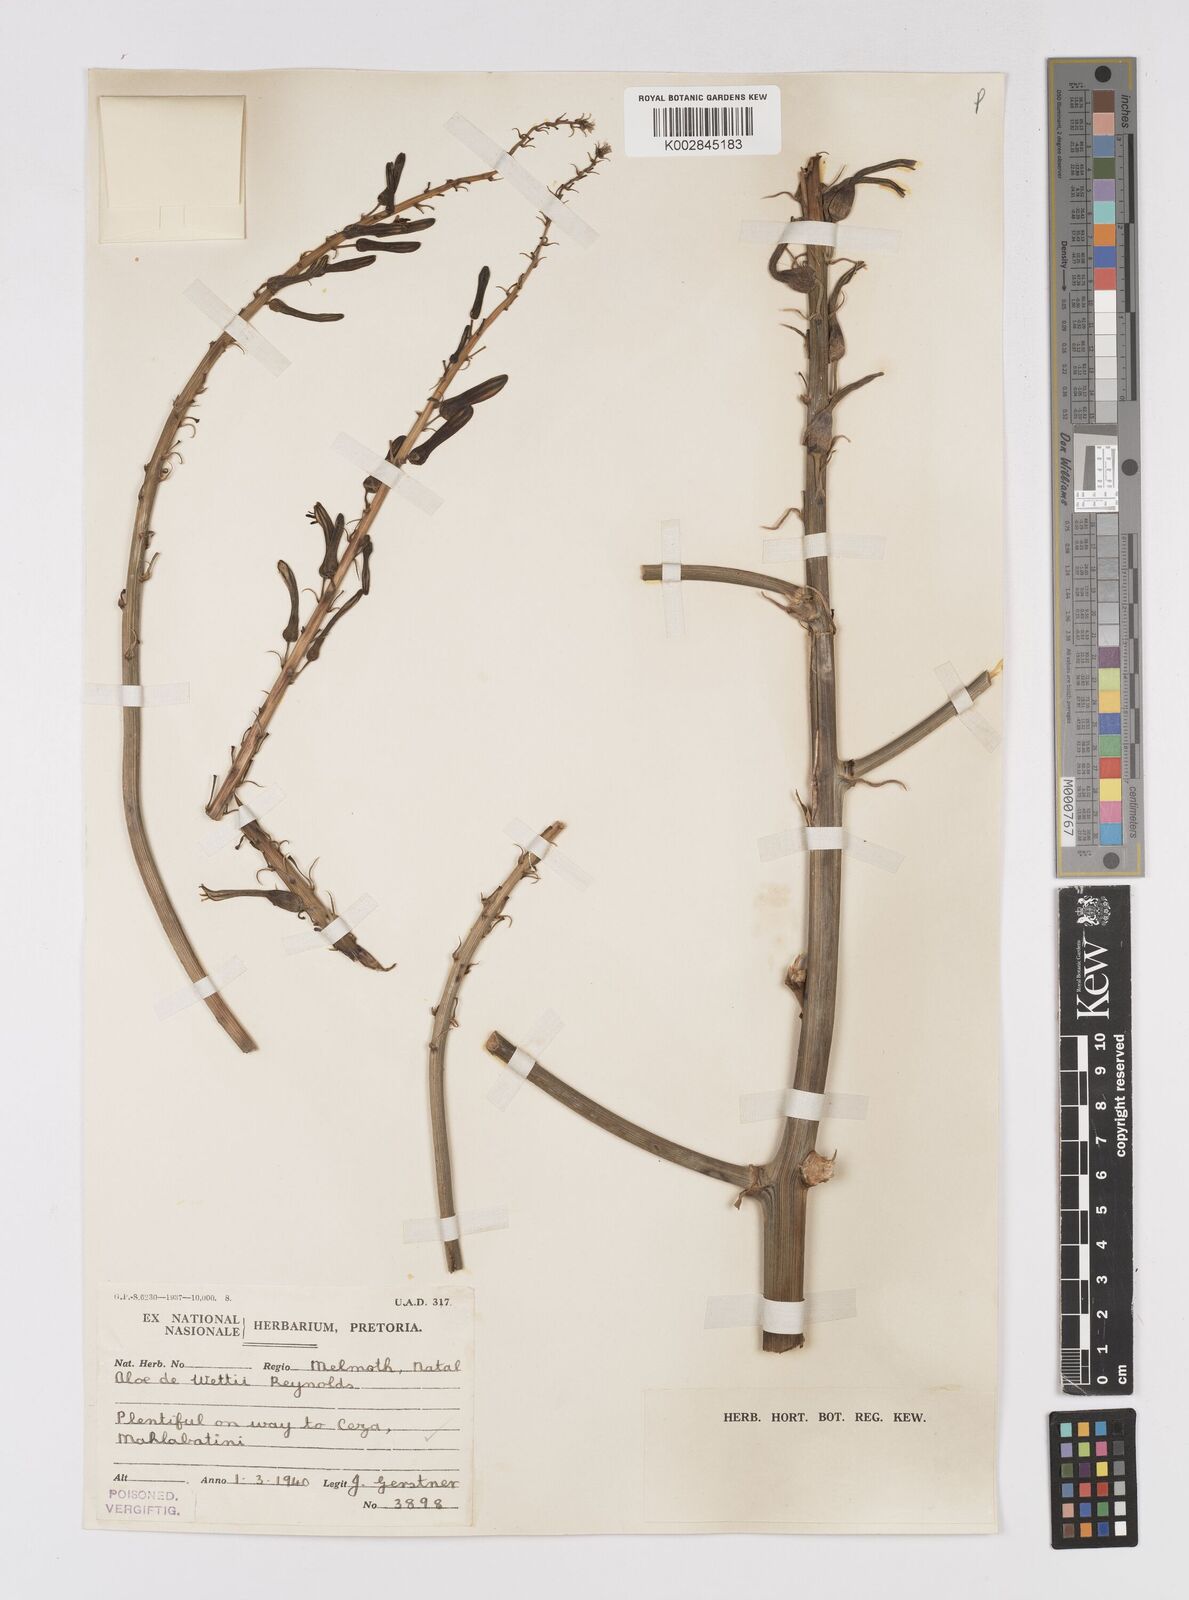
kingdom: Plantae
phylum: Tracheophyta
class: Liliopsida
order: Asparagales
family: Asphodelaceae
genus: Aloe
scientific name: Aloe dewetii
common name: De wet's aloe
